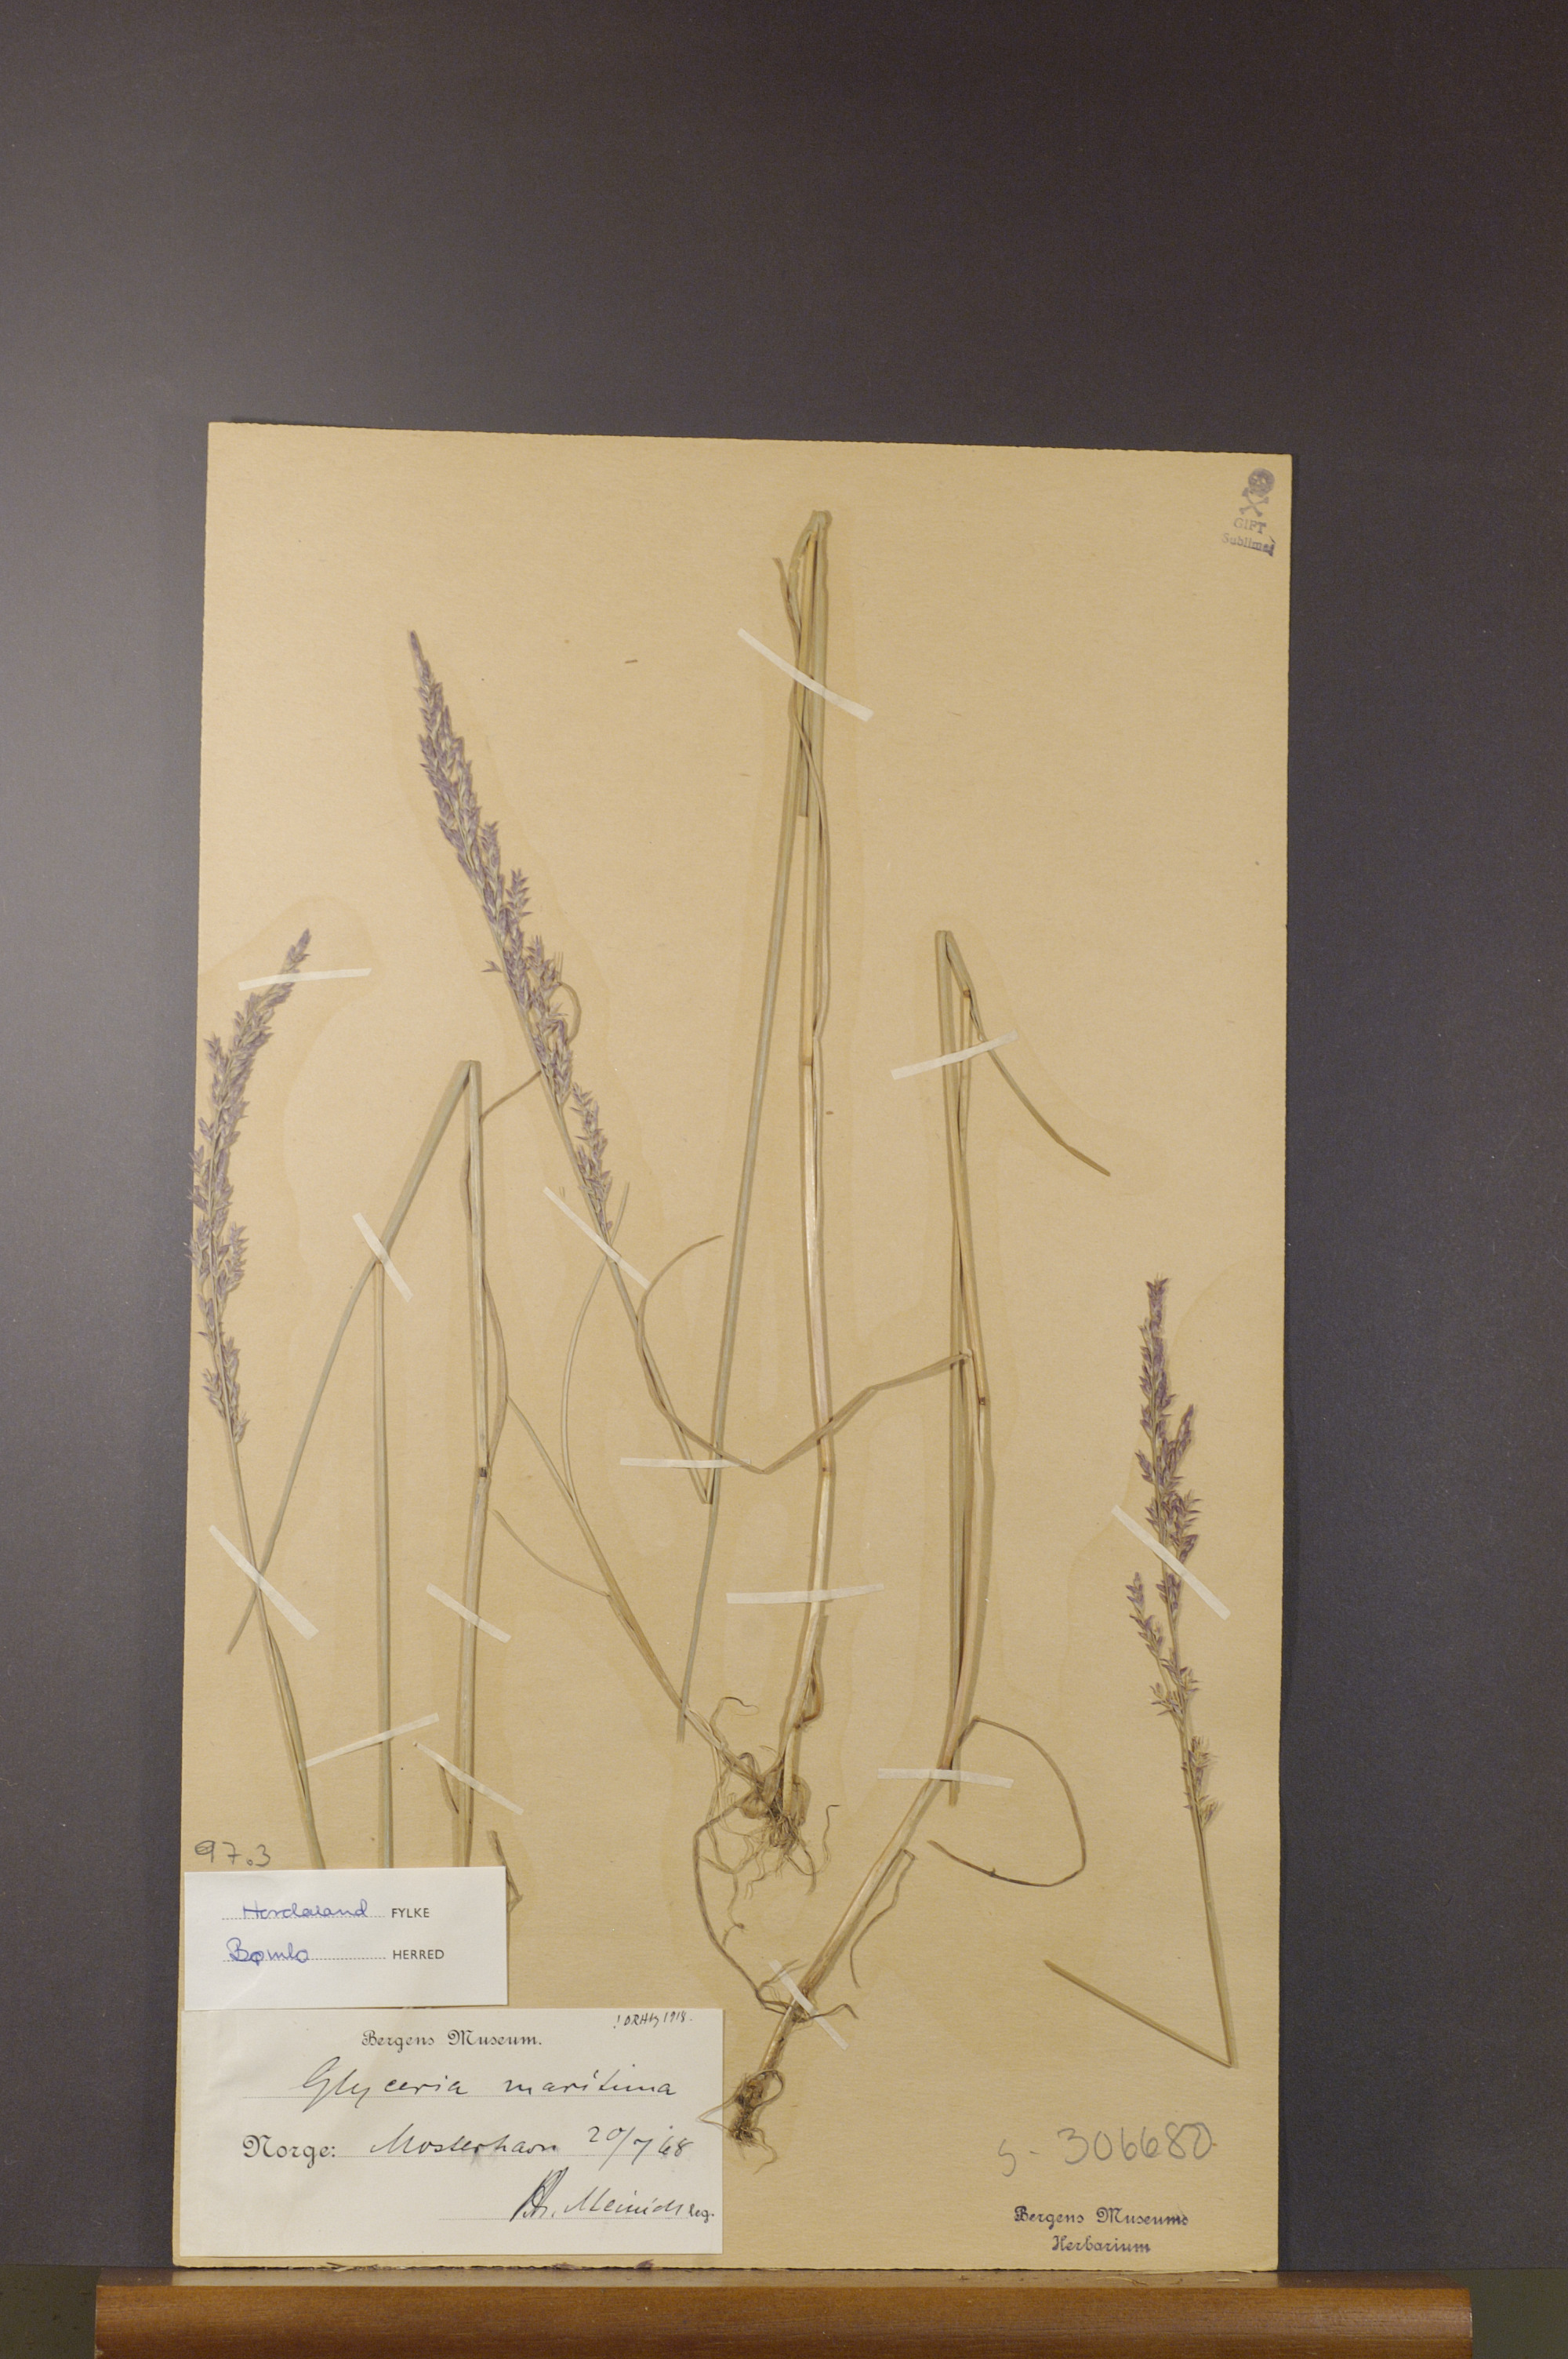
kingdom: Plantae
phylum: Tracheophyta
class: Liliopsida
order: Poales
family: Poaceae
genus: Puccinellia
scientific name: Puccinellia maritima
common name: Common saltmarsh grass
